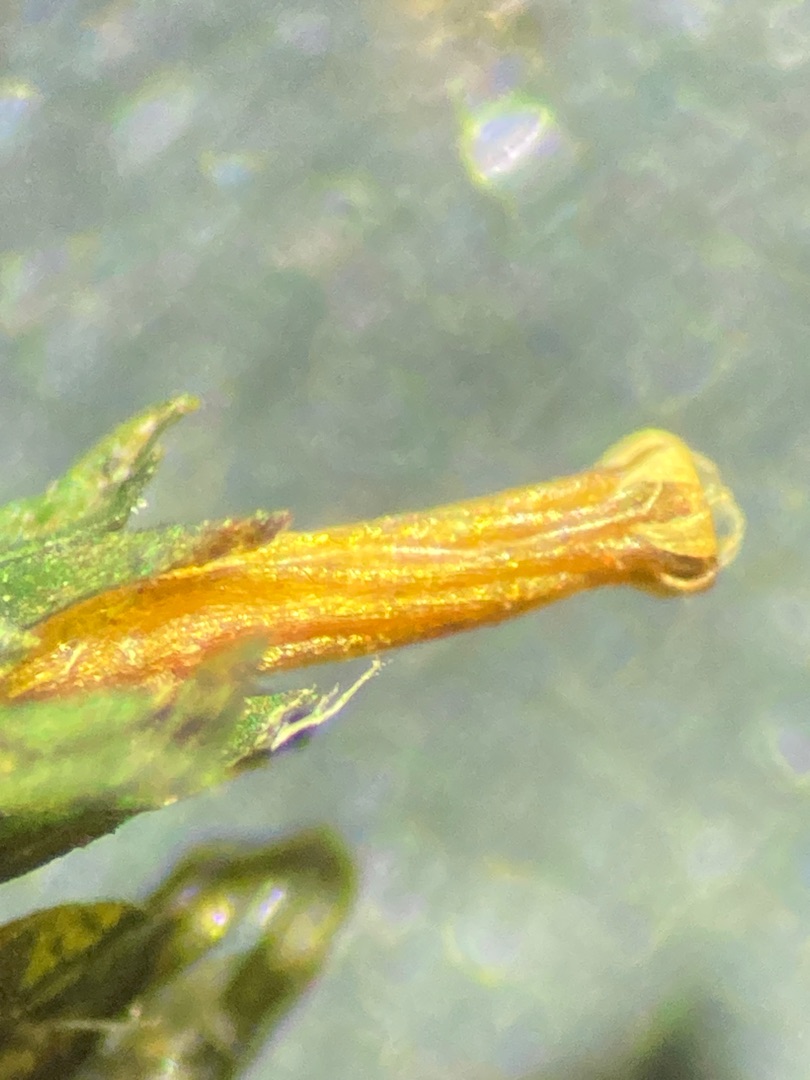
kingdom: Plantae
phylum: Bryophyta
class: Bryopsida
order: Orthotrichales
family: Orthotrichaceae
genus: Lewinskya
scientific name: Lewinskya affinis
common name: Almindelig furehætte
